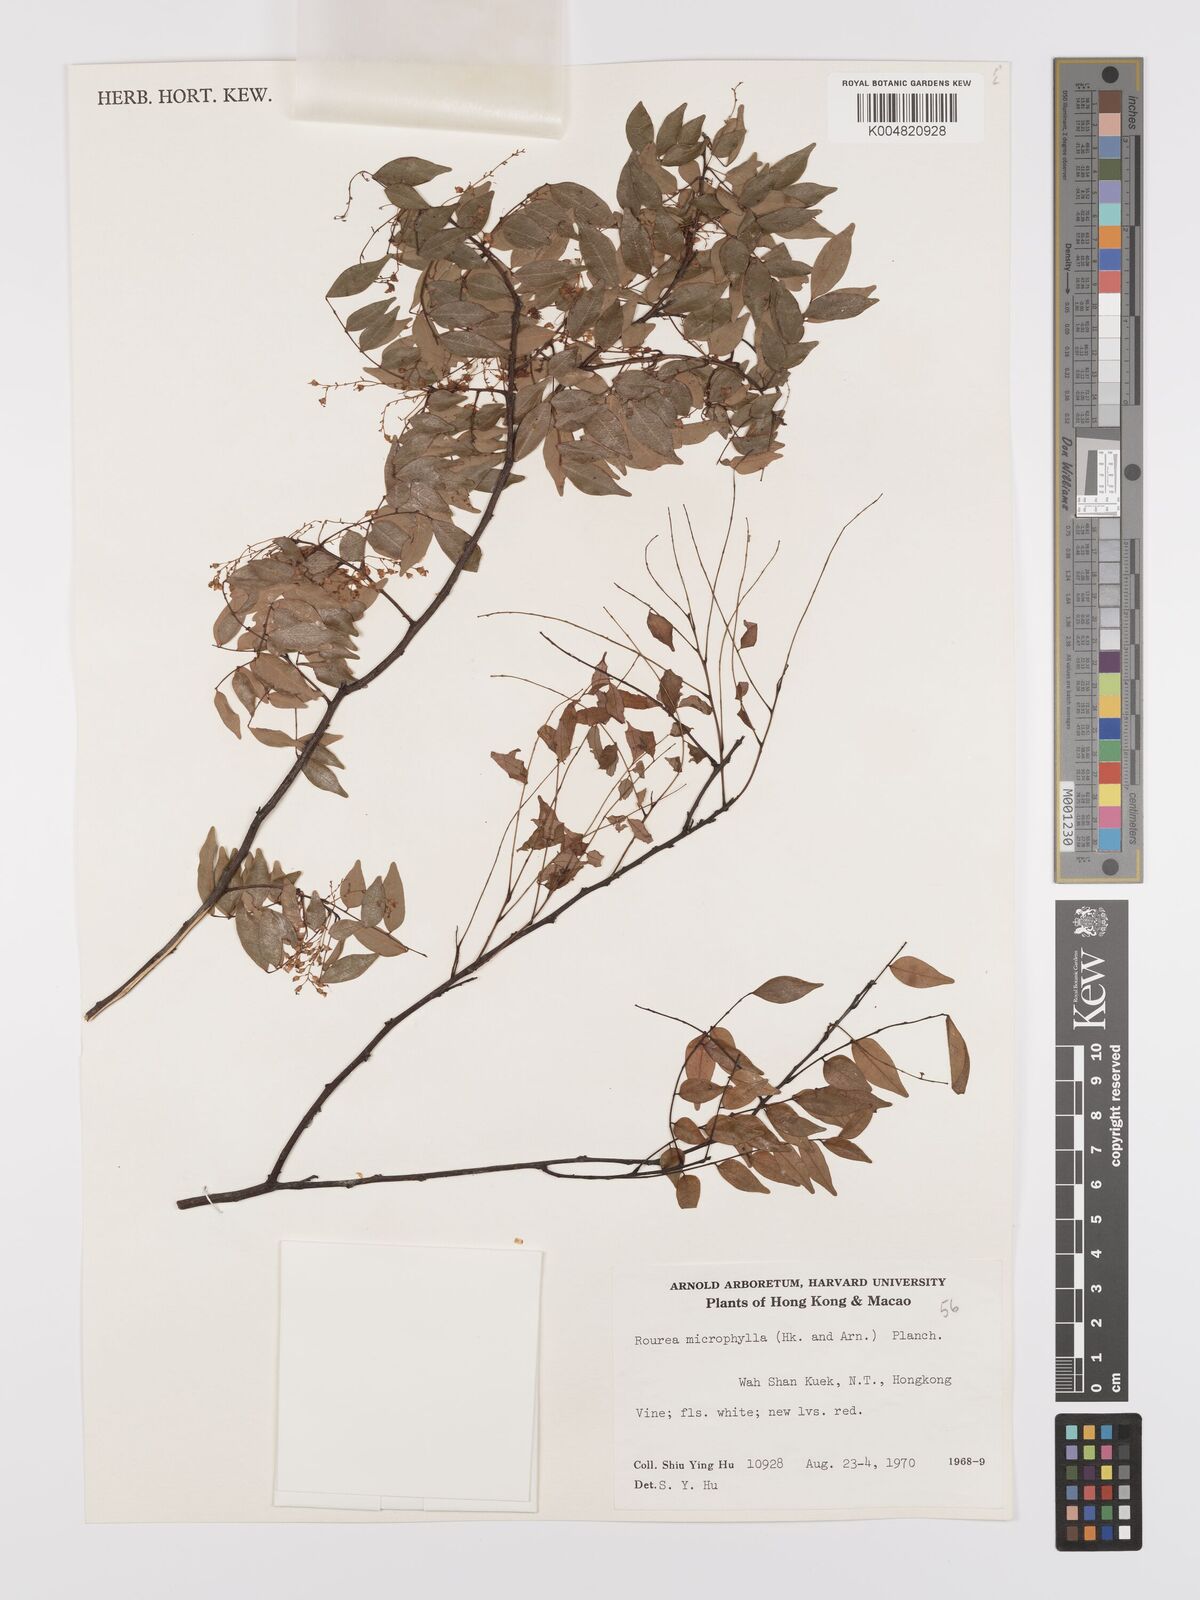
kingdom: Plantae
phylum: Tracheophyta
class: Magnoliopsida
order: Oxalidales
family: Connaraceae
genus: Rourea
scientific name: Rourea microphylla
